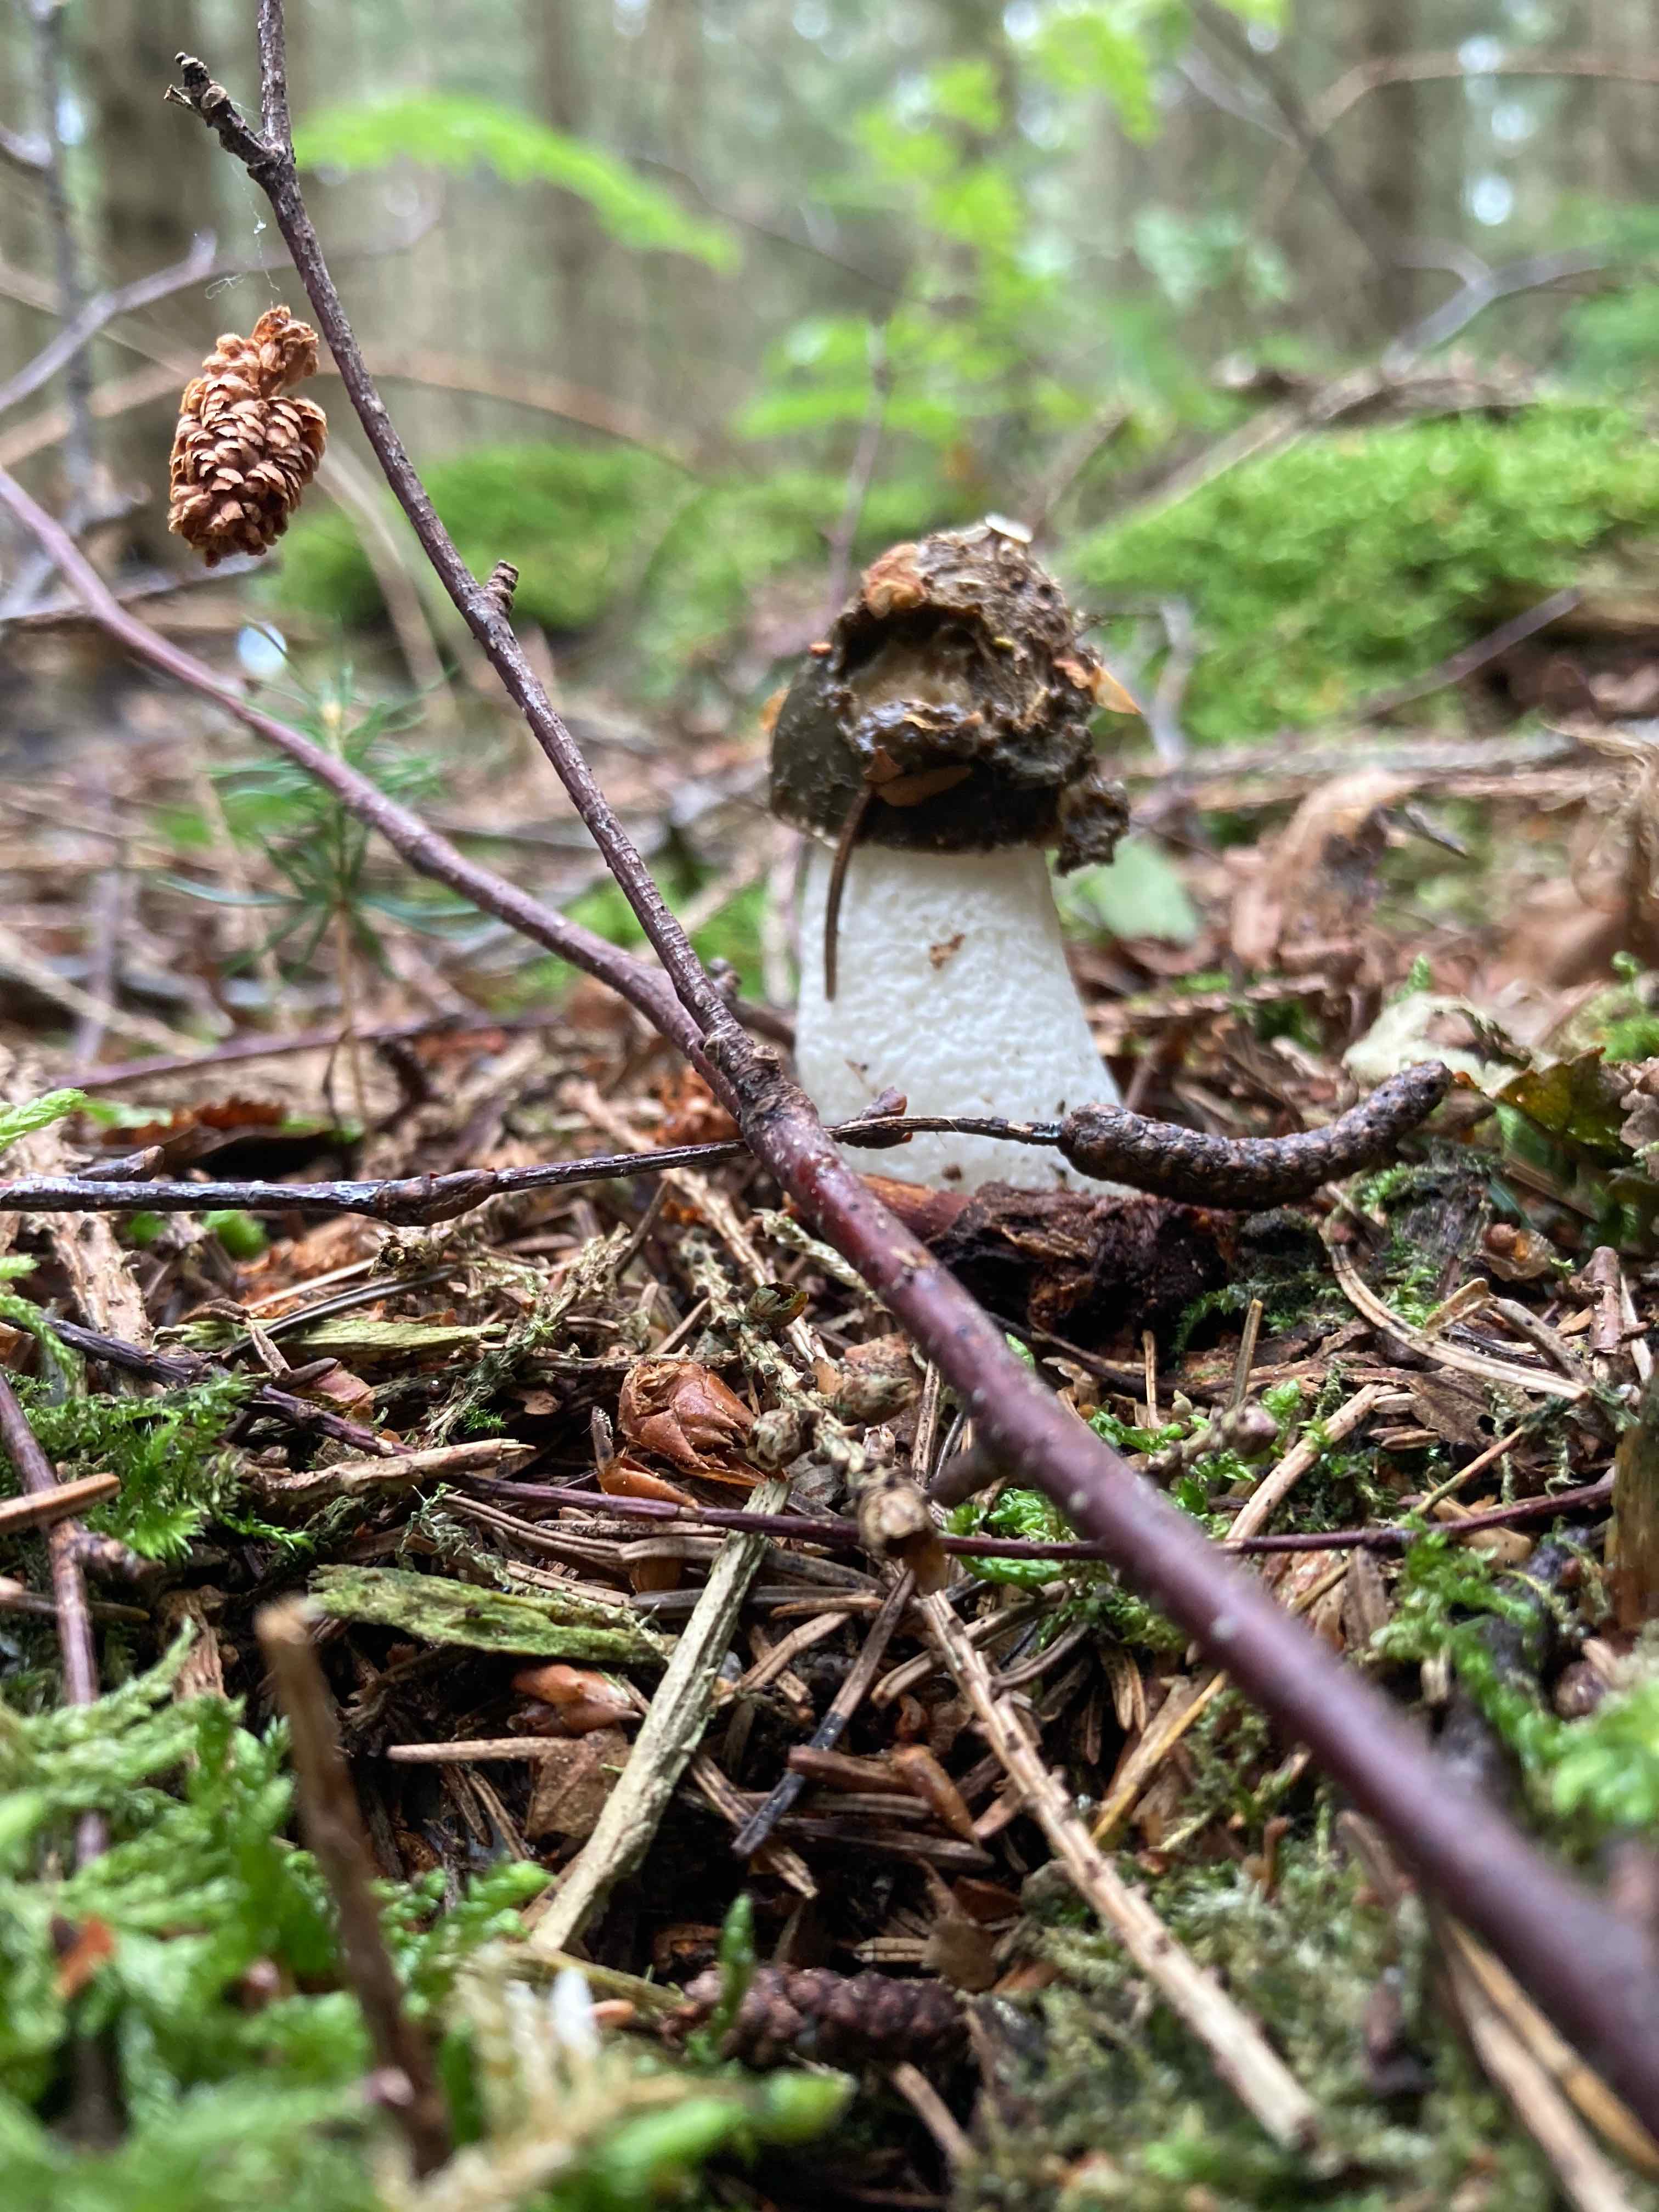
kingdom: Fungi
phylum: Basidiomycota
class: Agaricomycetes
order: Phallales
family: Phallaceae
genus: Phallus
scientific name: Phallus impudicus
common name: almindelig stinksvamp
